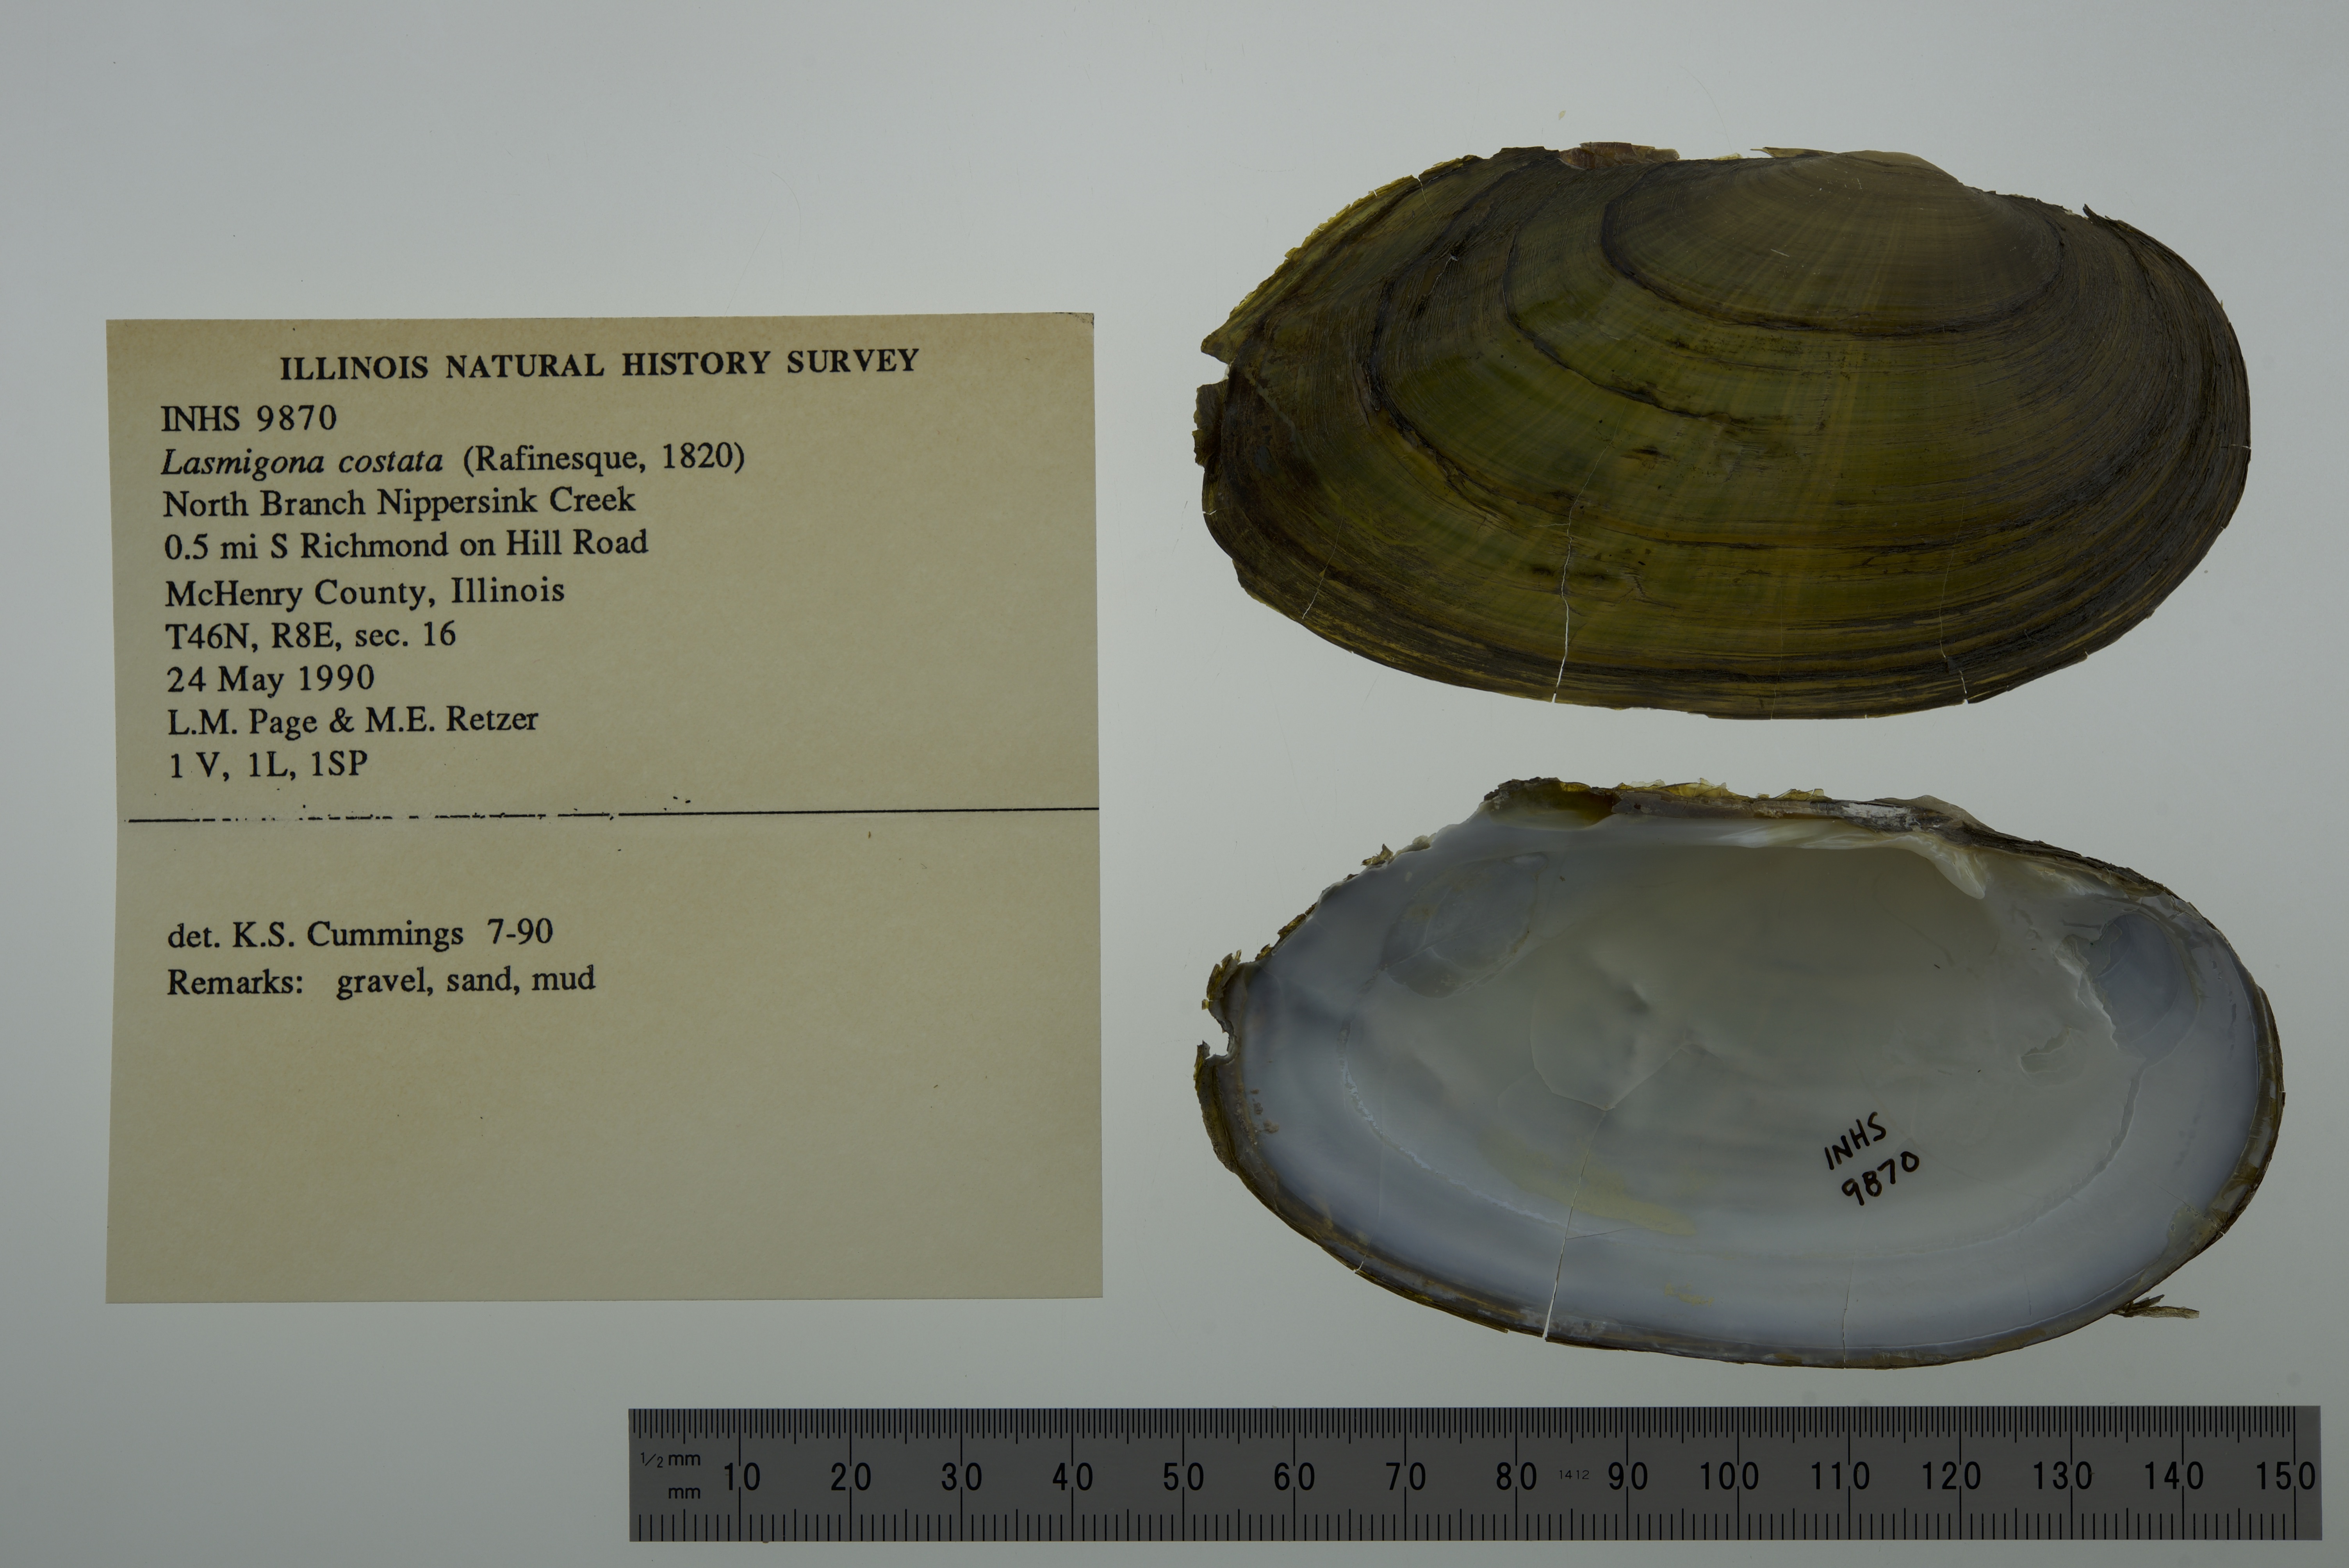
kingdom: Animalia
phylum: Mollusca
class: Bivalvia
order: Unionida
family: Unionidae
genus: Lasmigona
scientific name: Lasmigona costata
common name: Flutedshell
